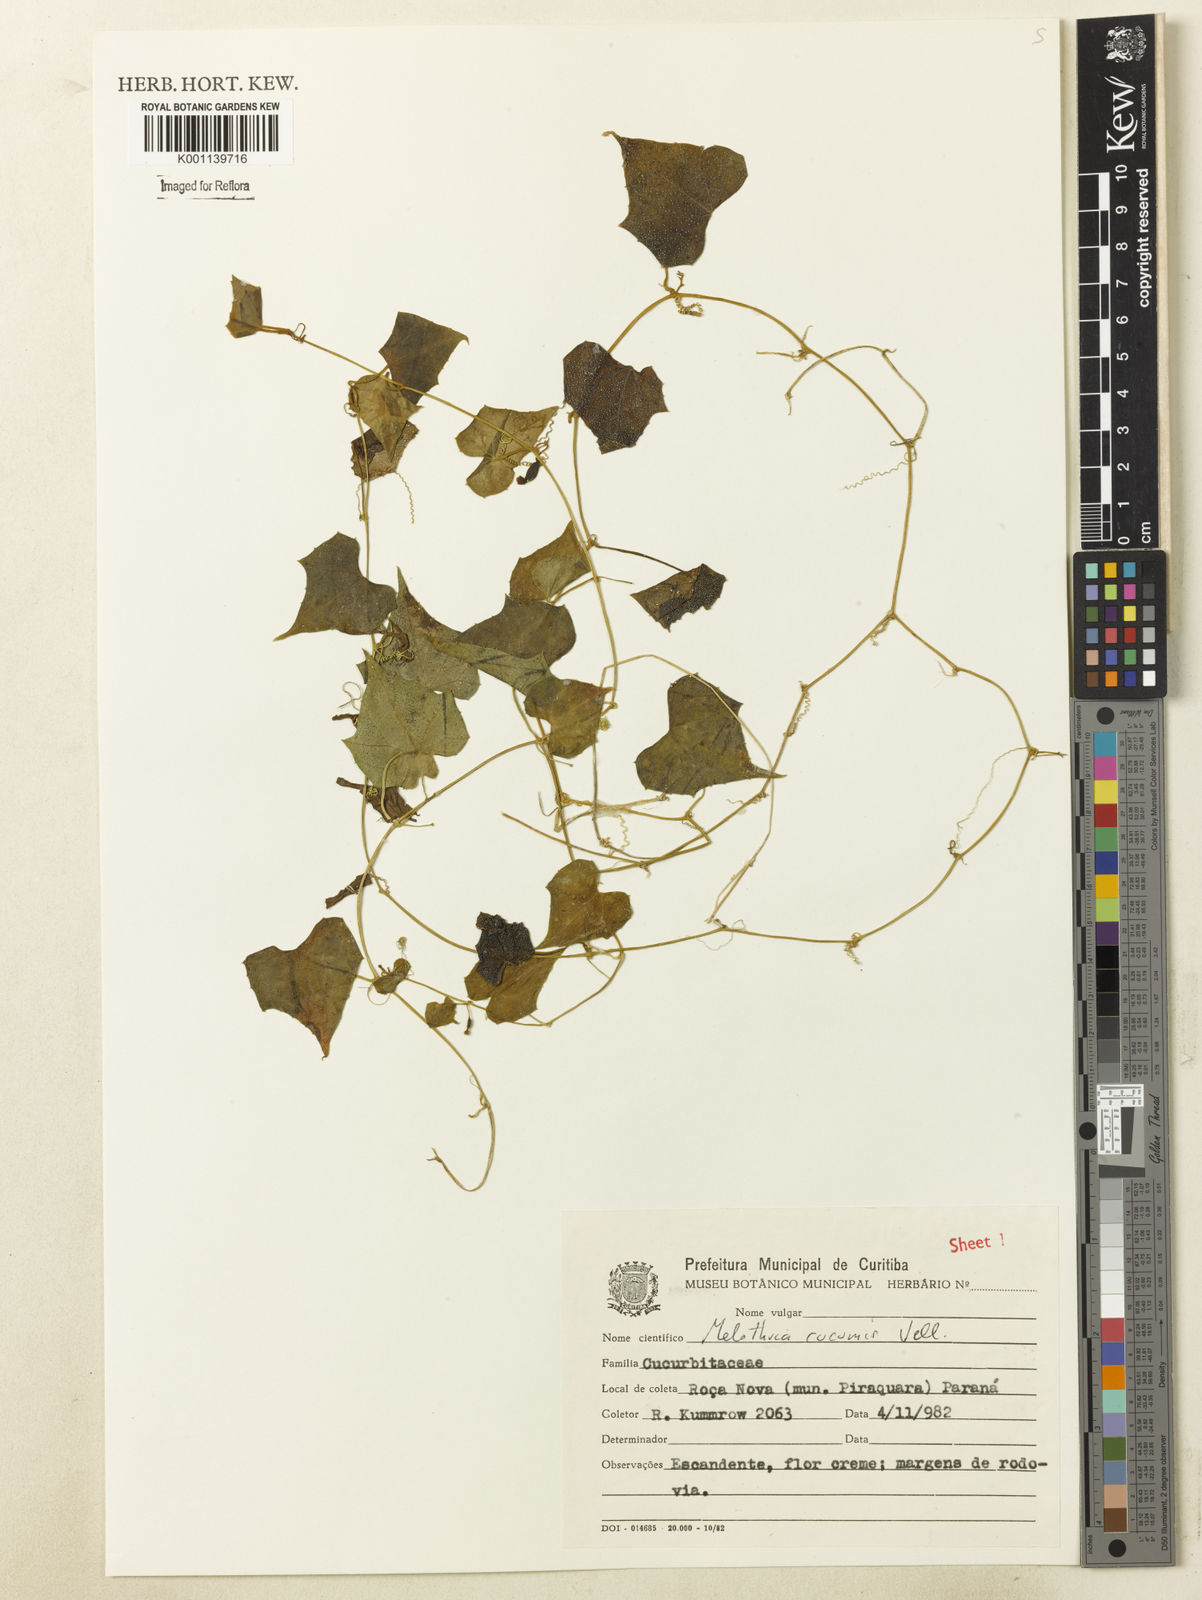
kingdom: Plantae
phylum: Tracheophyta
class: Magnoliopsida
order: Cucurbitales
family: Cucurbitaceae
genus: Melothria
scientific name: Melothria cucumis
